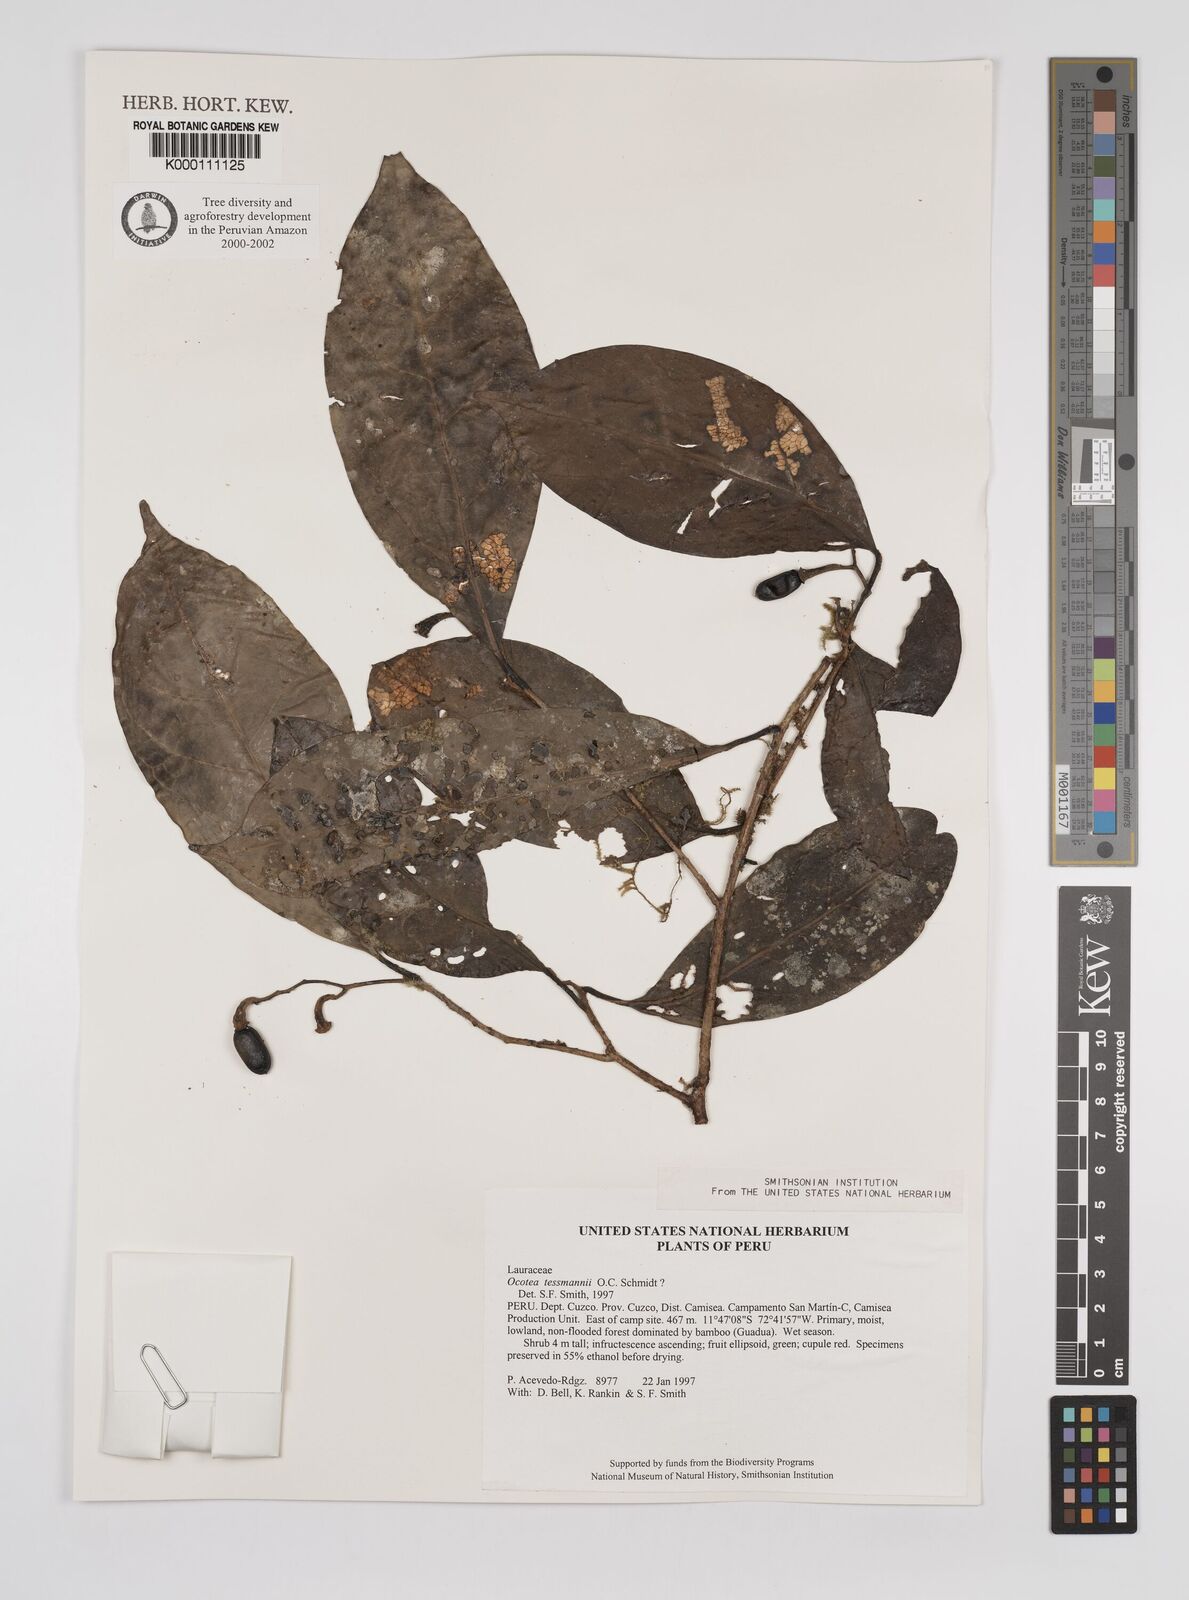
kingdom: Plantae
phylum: Tracheophyta
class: Magnoliopsida
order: Laurales
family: Lauraceae
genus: Ocotea
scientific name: Ocotea tessmannii
